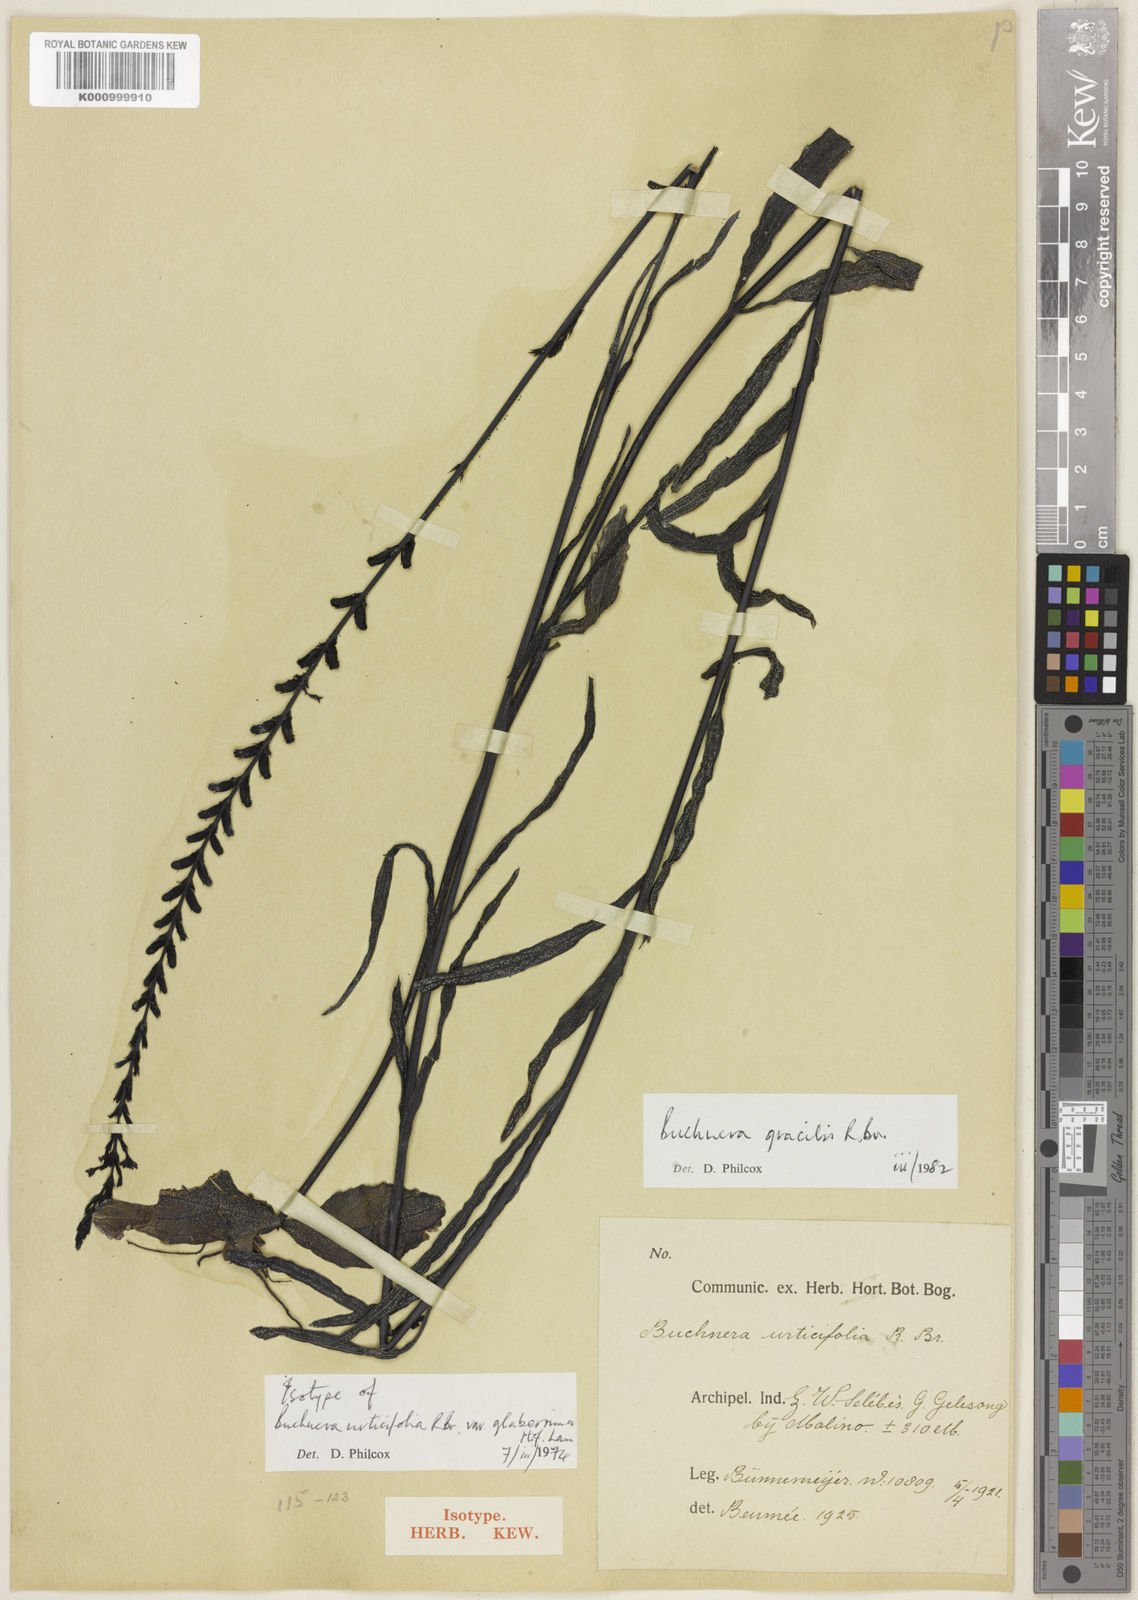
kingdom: Plantae
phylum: Tracheophyta
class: Magnoliopsida
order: Lamiales
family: Orobanchaceae
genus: Buchnera
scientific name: Buchnera gracilis
